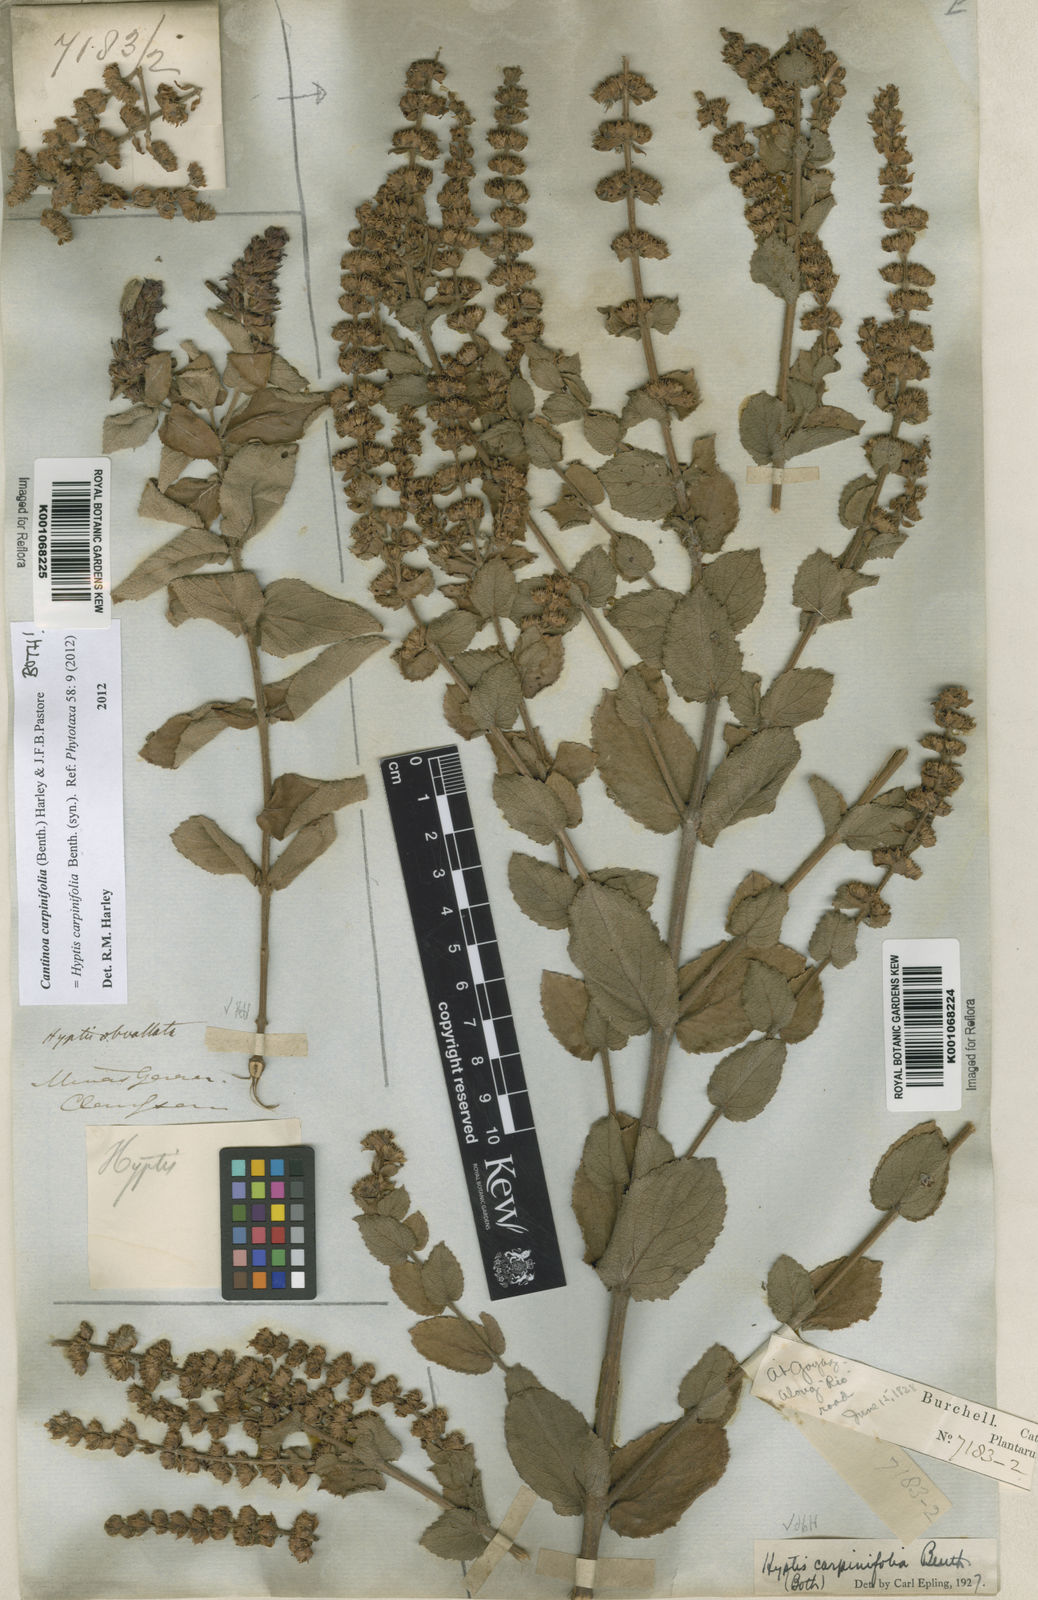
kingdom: Plantae
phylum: Tracheophyta
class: Magnoliopsida
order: Lamiales
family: Lamiaceae
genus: Cantinoa
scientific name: Cantinoa carpinifolia
